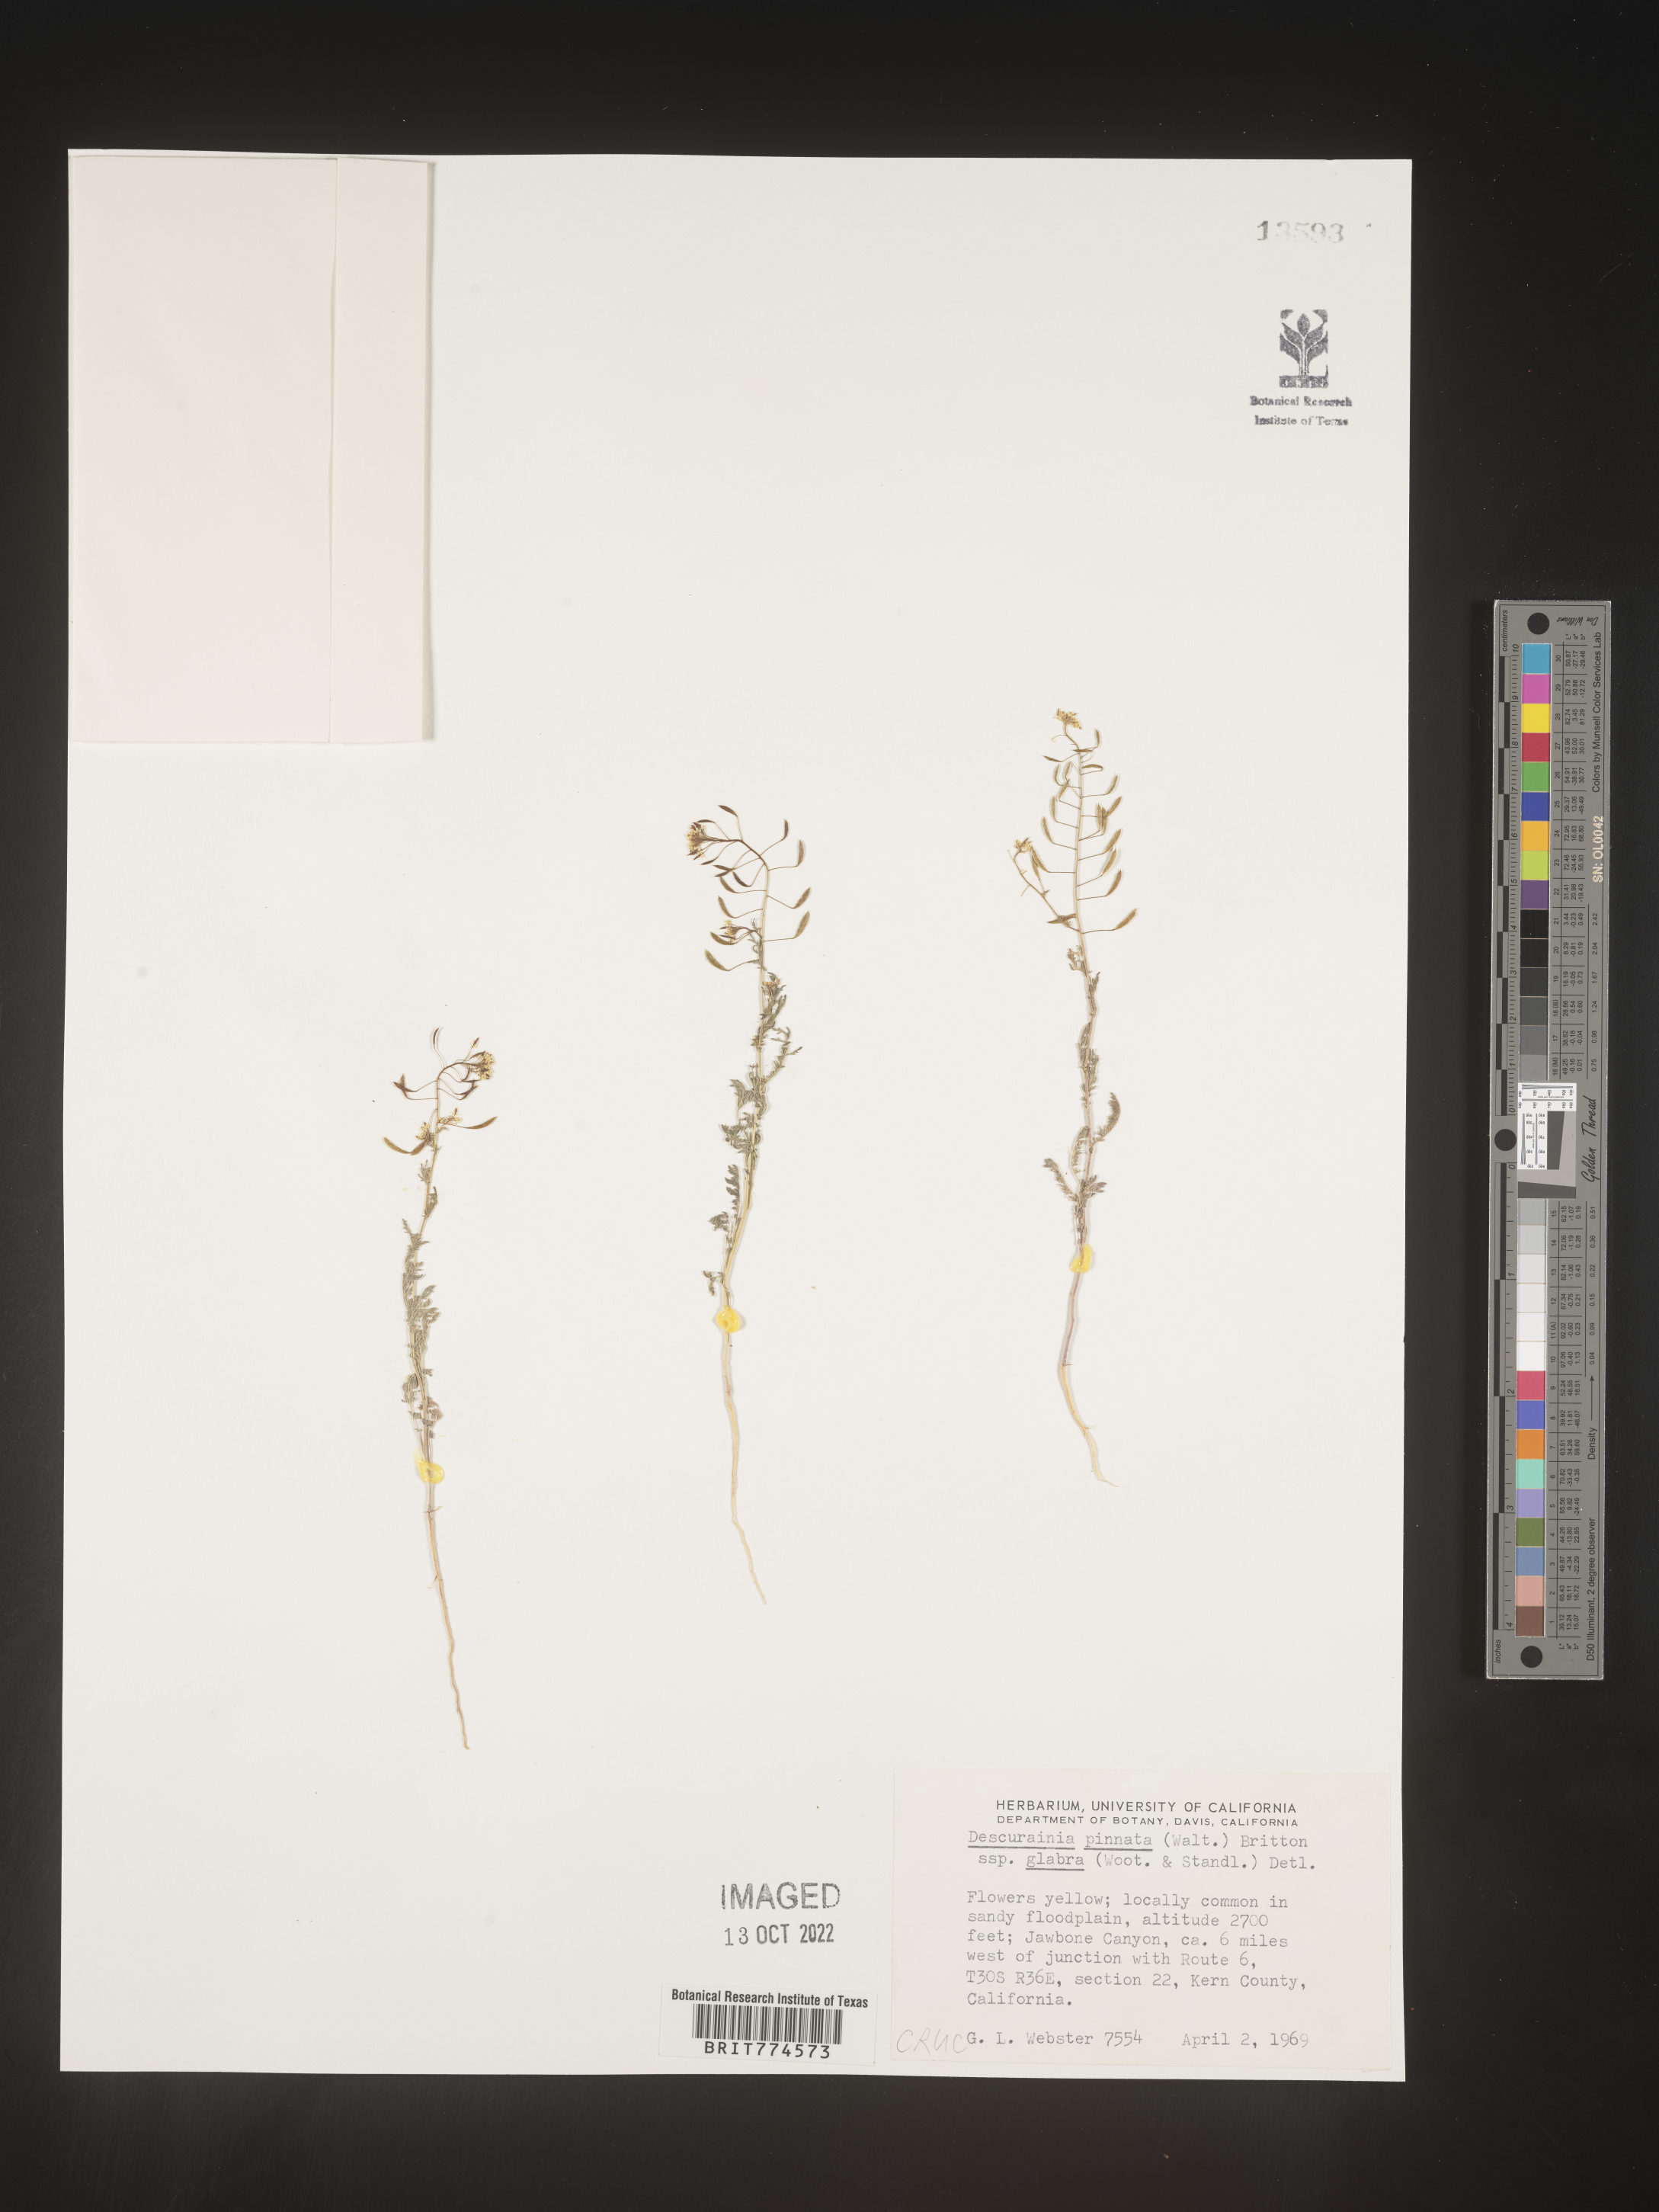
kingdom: Plantae
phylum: Tracheophyta
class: Magnoliopsida
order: Brassicales
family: Brassicaceae
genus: Descurainia
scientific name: Descurainia pinnata
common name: Western tansy mustard
